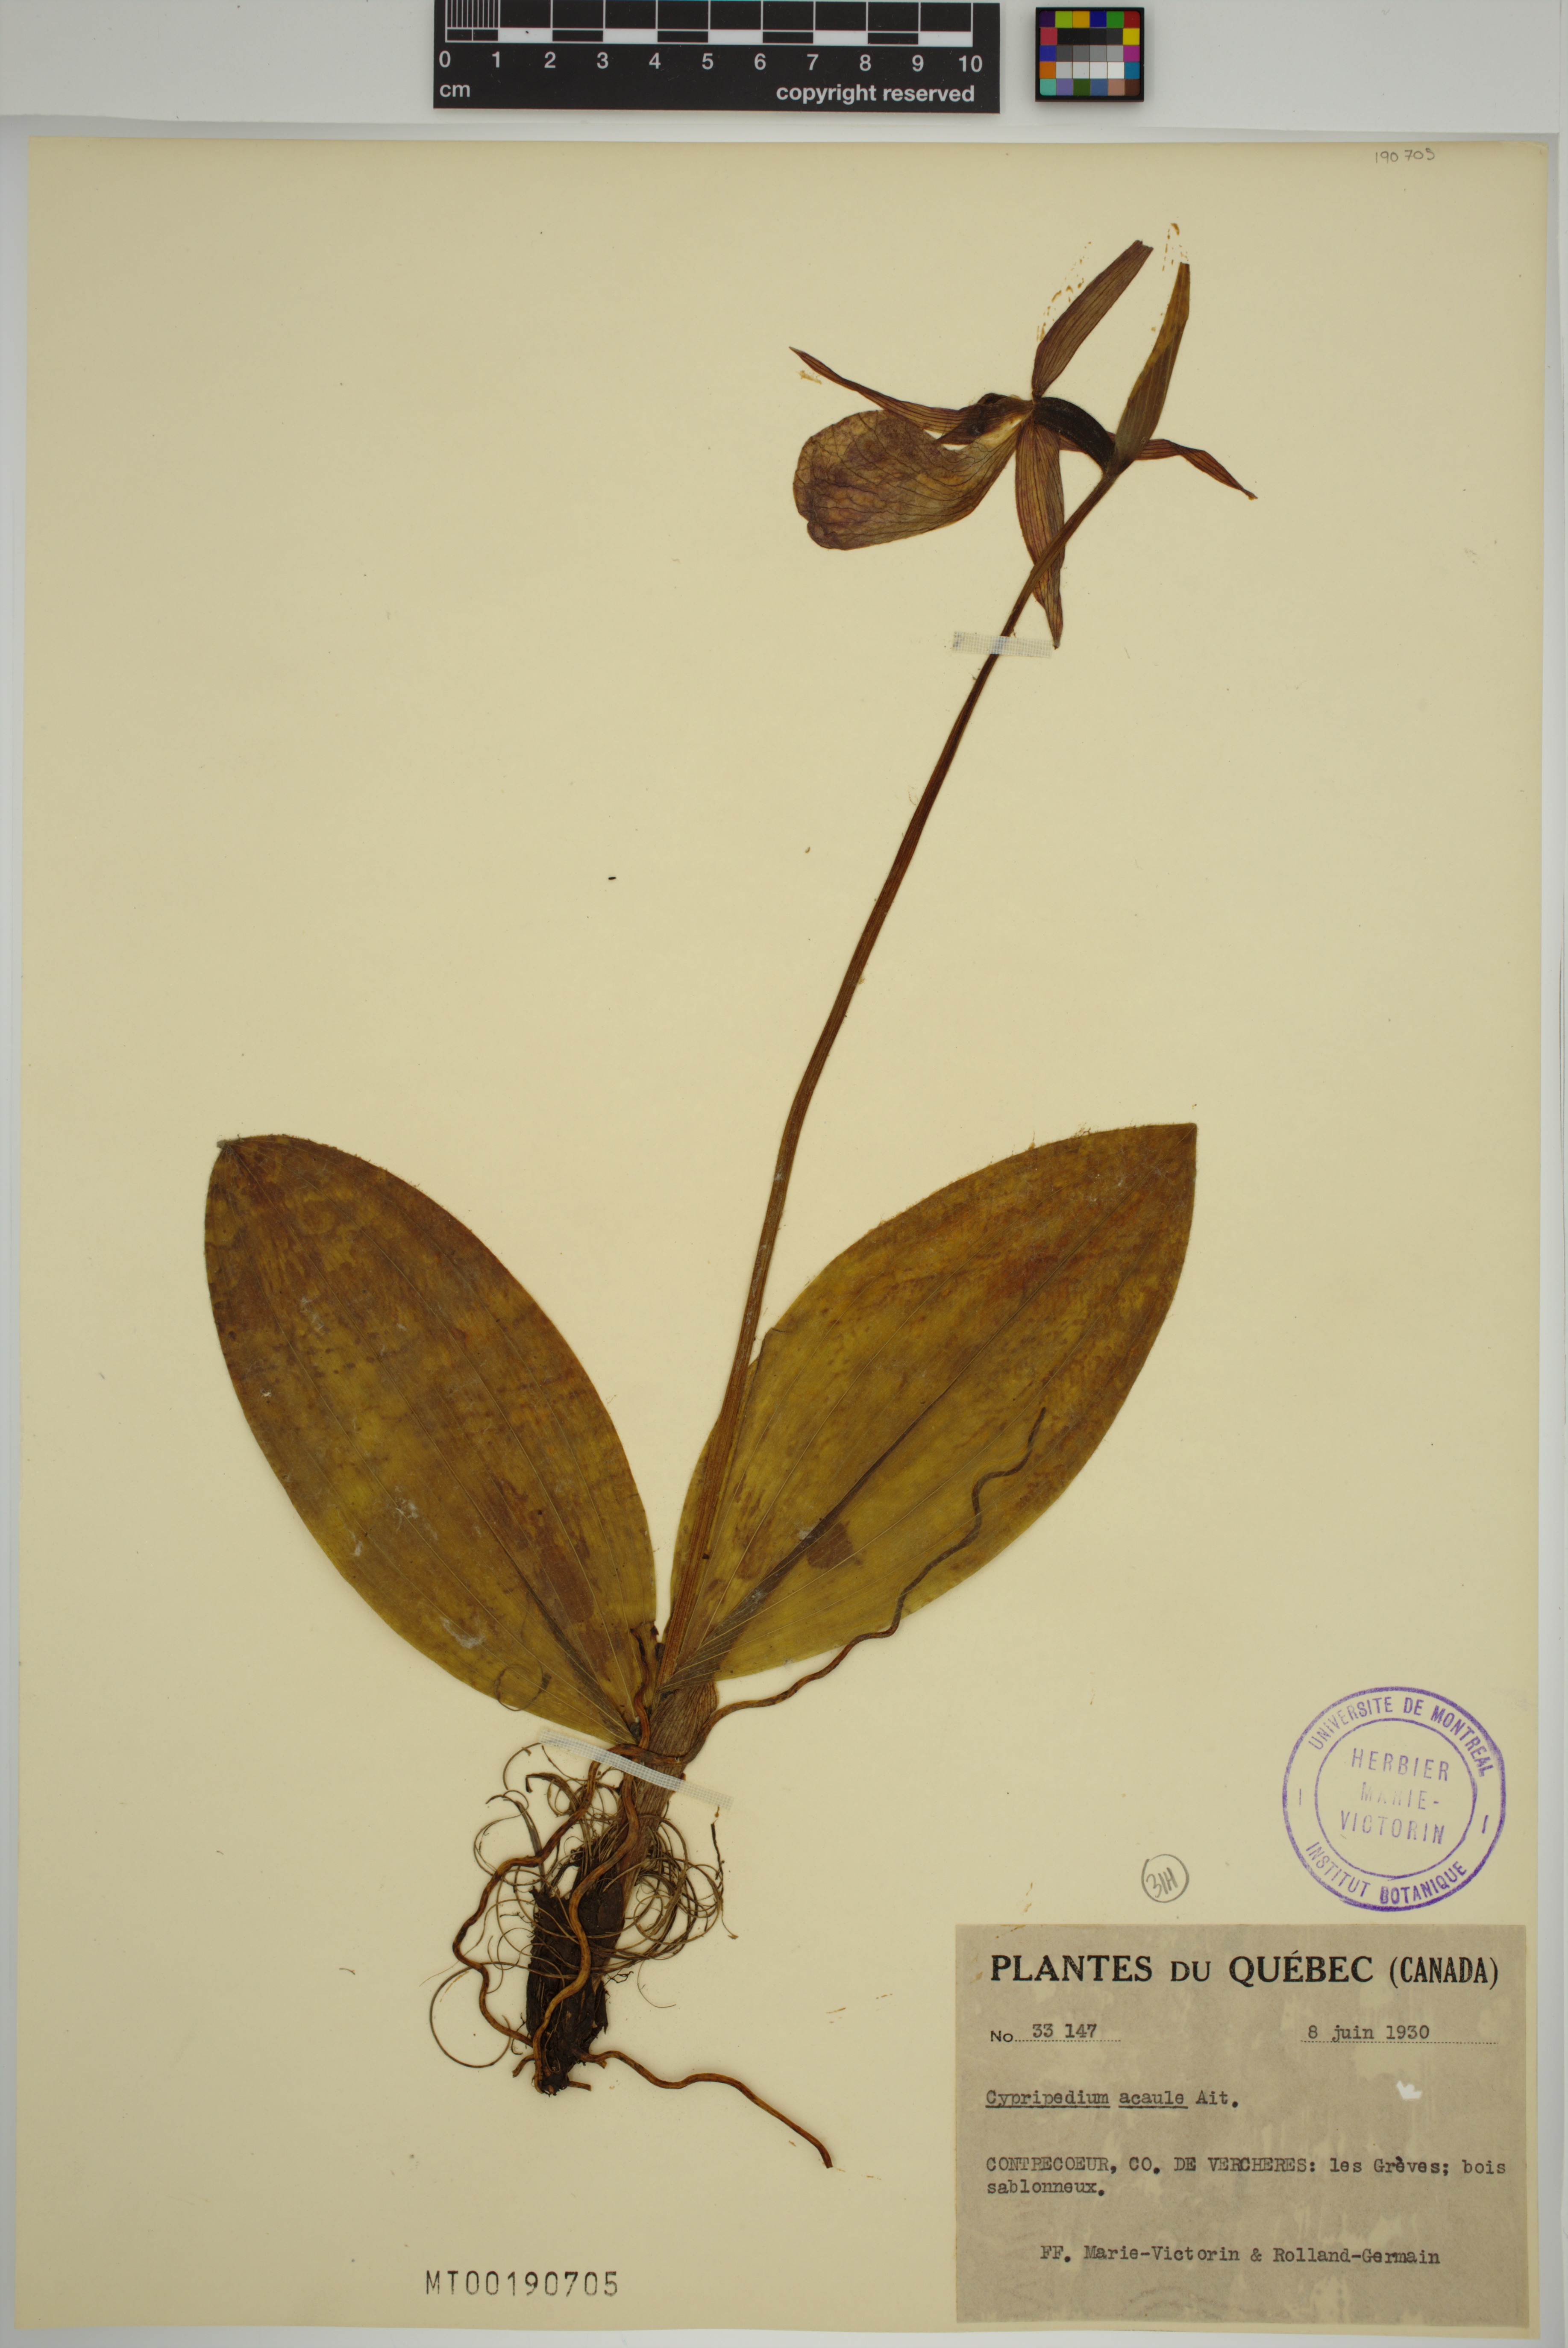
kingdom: Plantae
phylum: Tracheophyta
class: Liliopsida
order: Asparagales
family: Orchidaceae
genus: Cypripedium
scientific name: Cypripedium acaule
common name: Pink lady's-slipper
